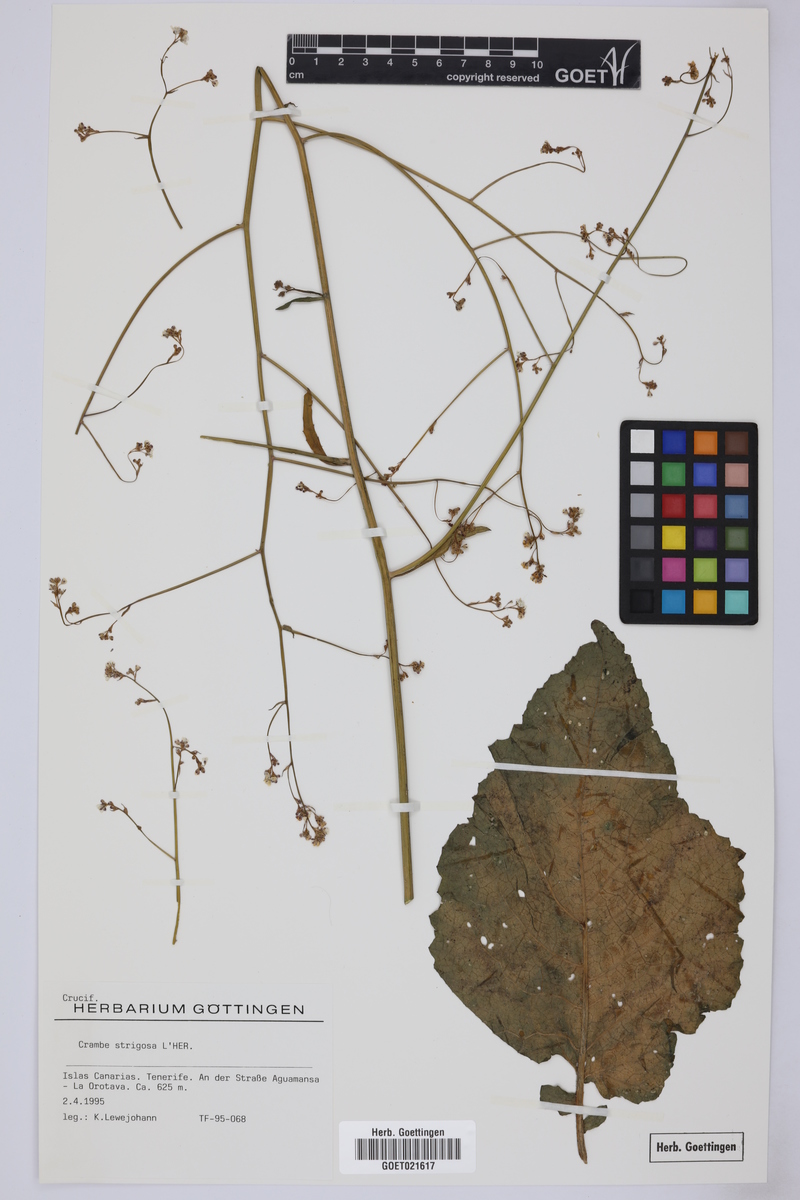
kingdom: Plantae
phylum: Tracheophyta
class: Magnoliopsida
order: Brassicales
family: Brassicaceae
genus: Crambe
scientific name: Crambe strigosa
